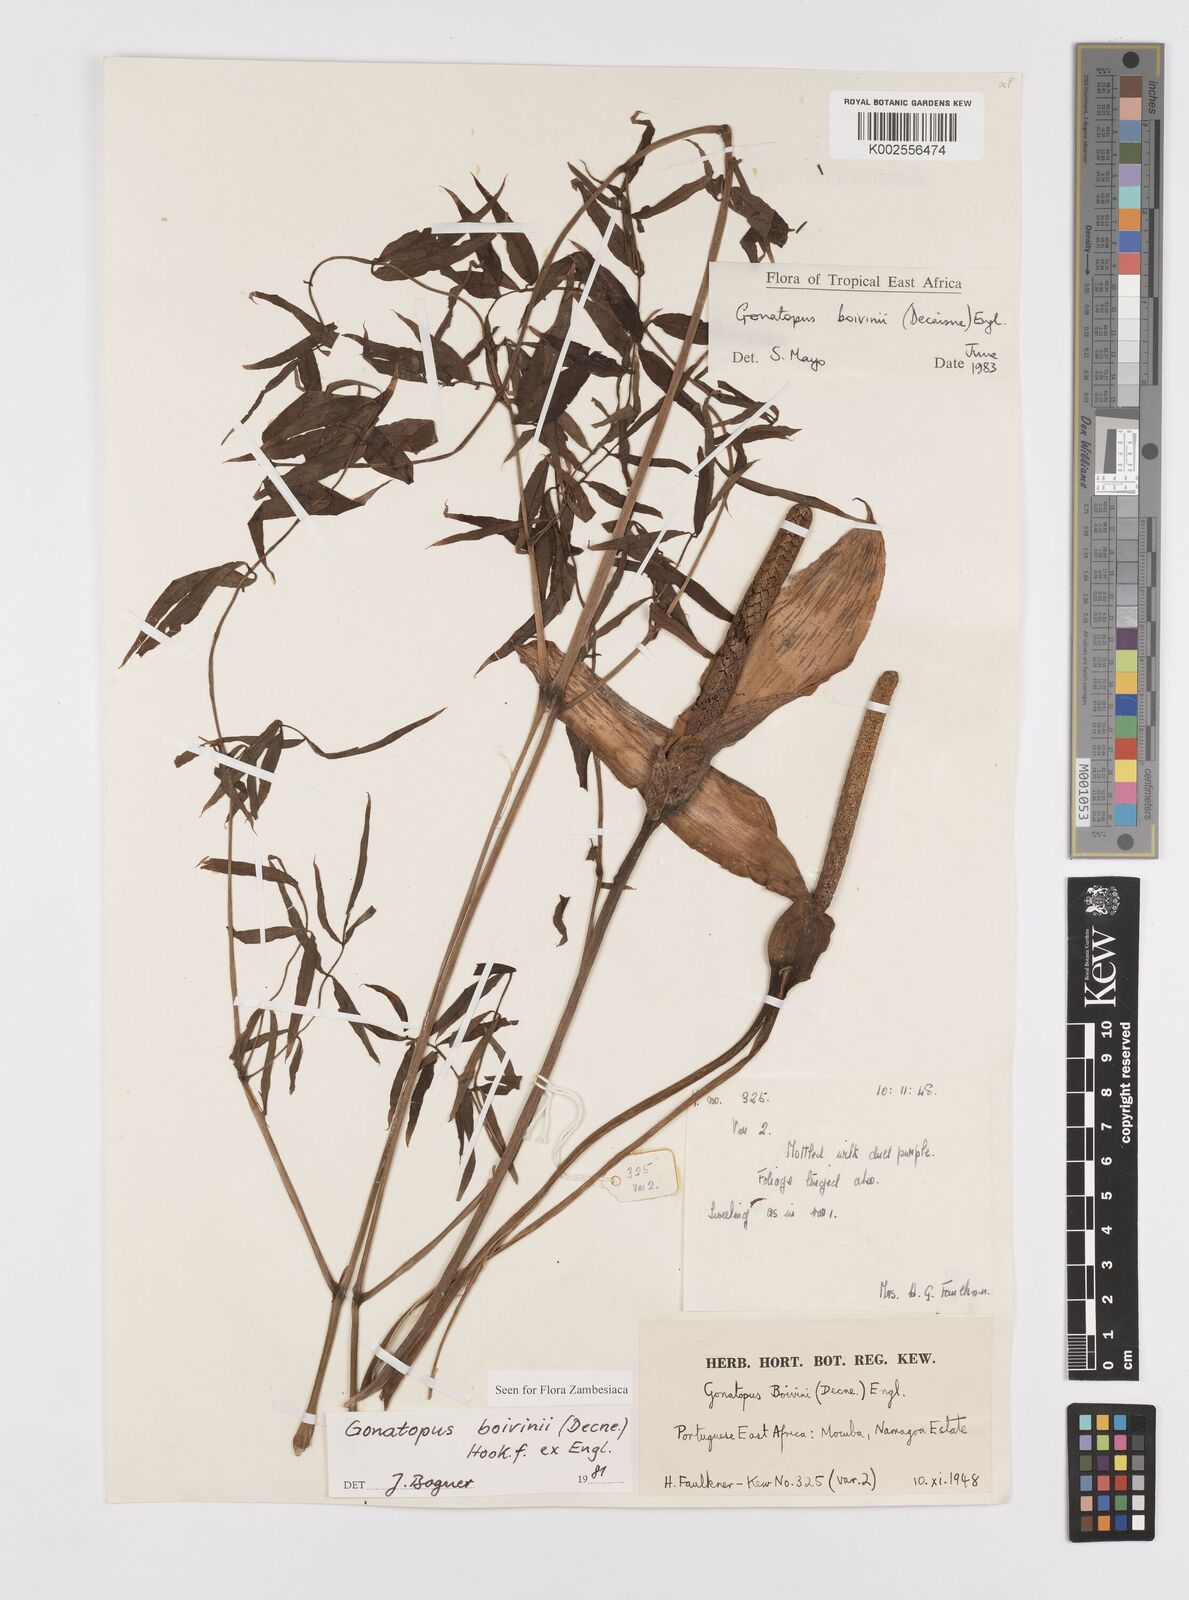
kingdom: Plantae
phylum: Tracheophyta
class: Liliopsida
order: Alismatales
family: Araceae
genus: Gonatopus
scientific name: Gonatopus boivinii
